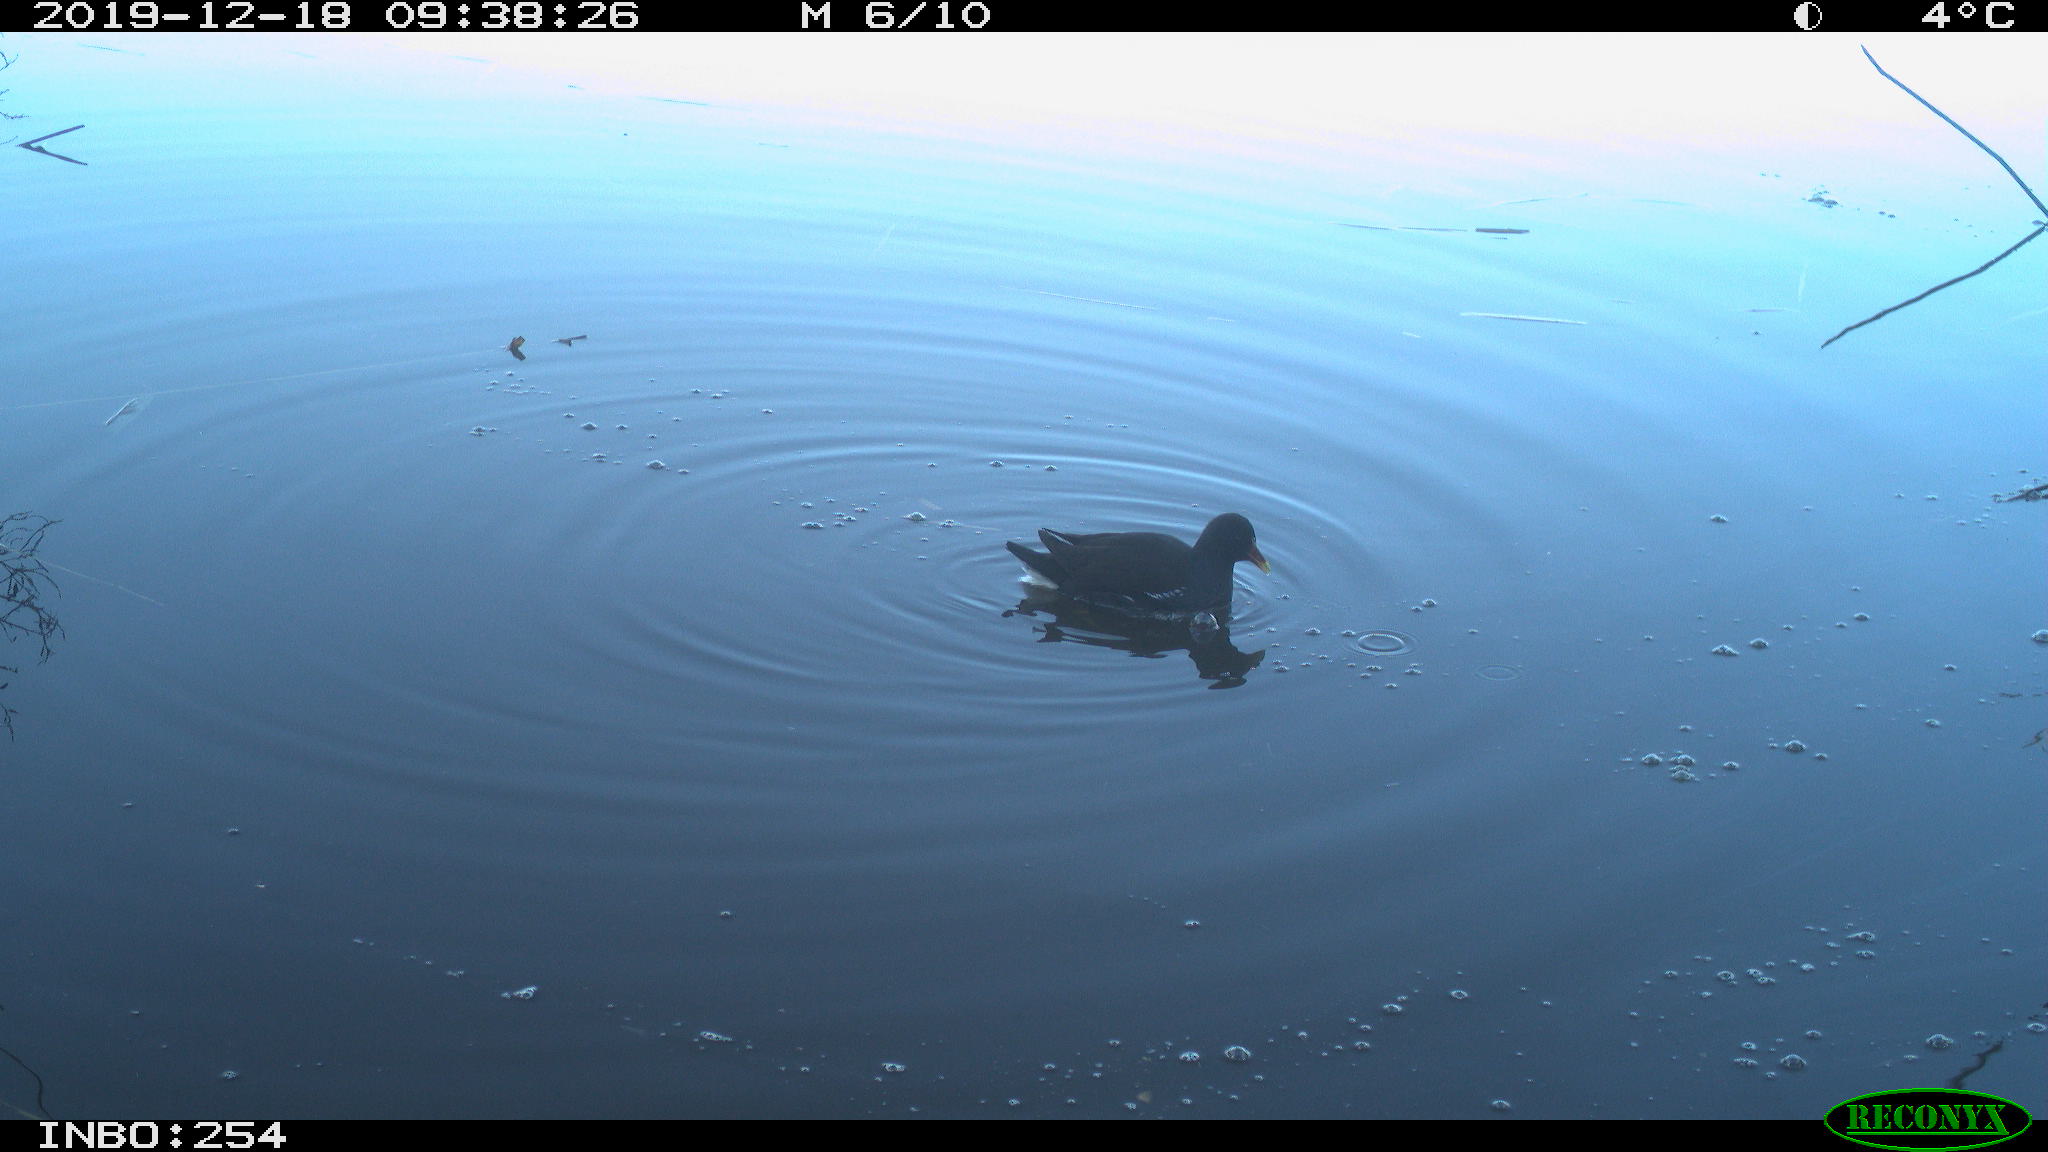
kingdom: Animalia
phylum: Chordata
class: Aves
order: Gruiformes
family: Rallidae
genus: Gallinula
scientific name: Gallinula chloropus
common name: Common moorhen
